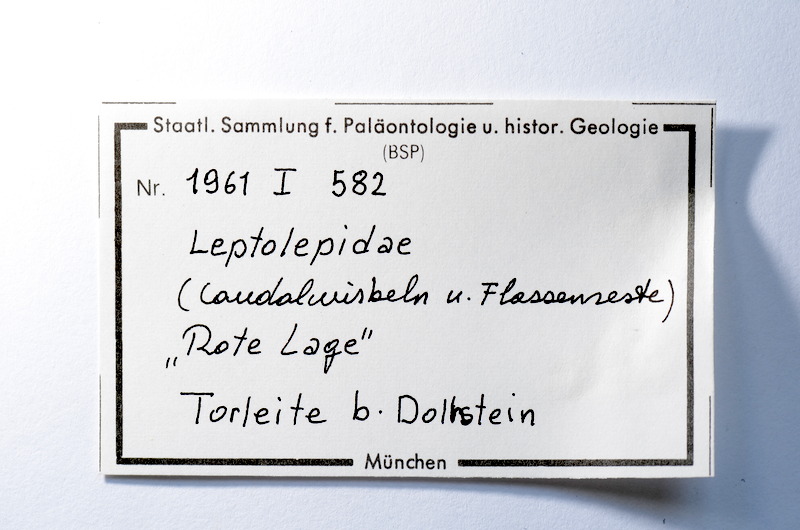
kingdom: Animalia
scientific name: Animalia
